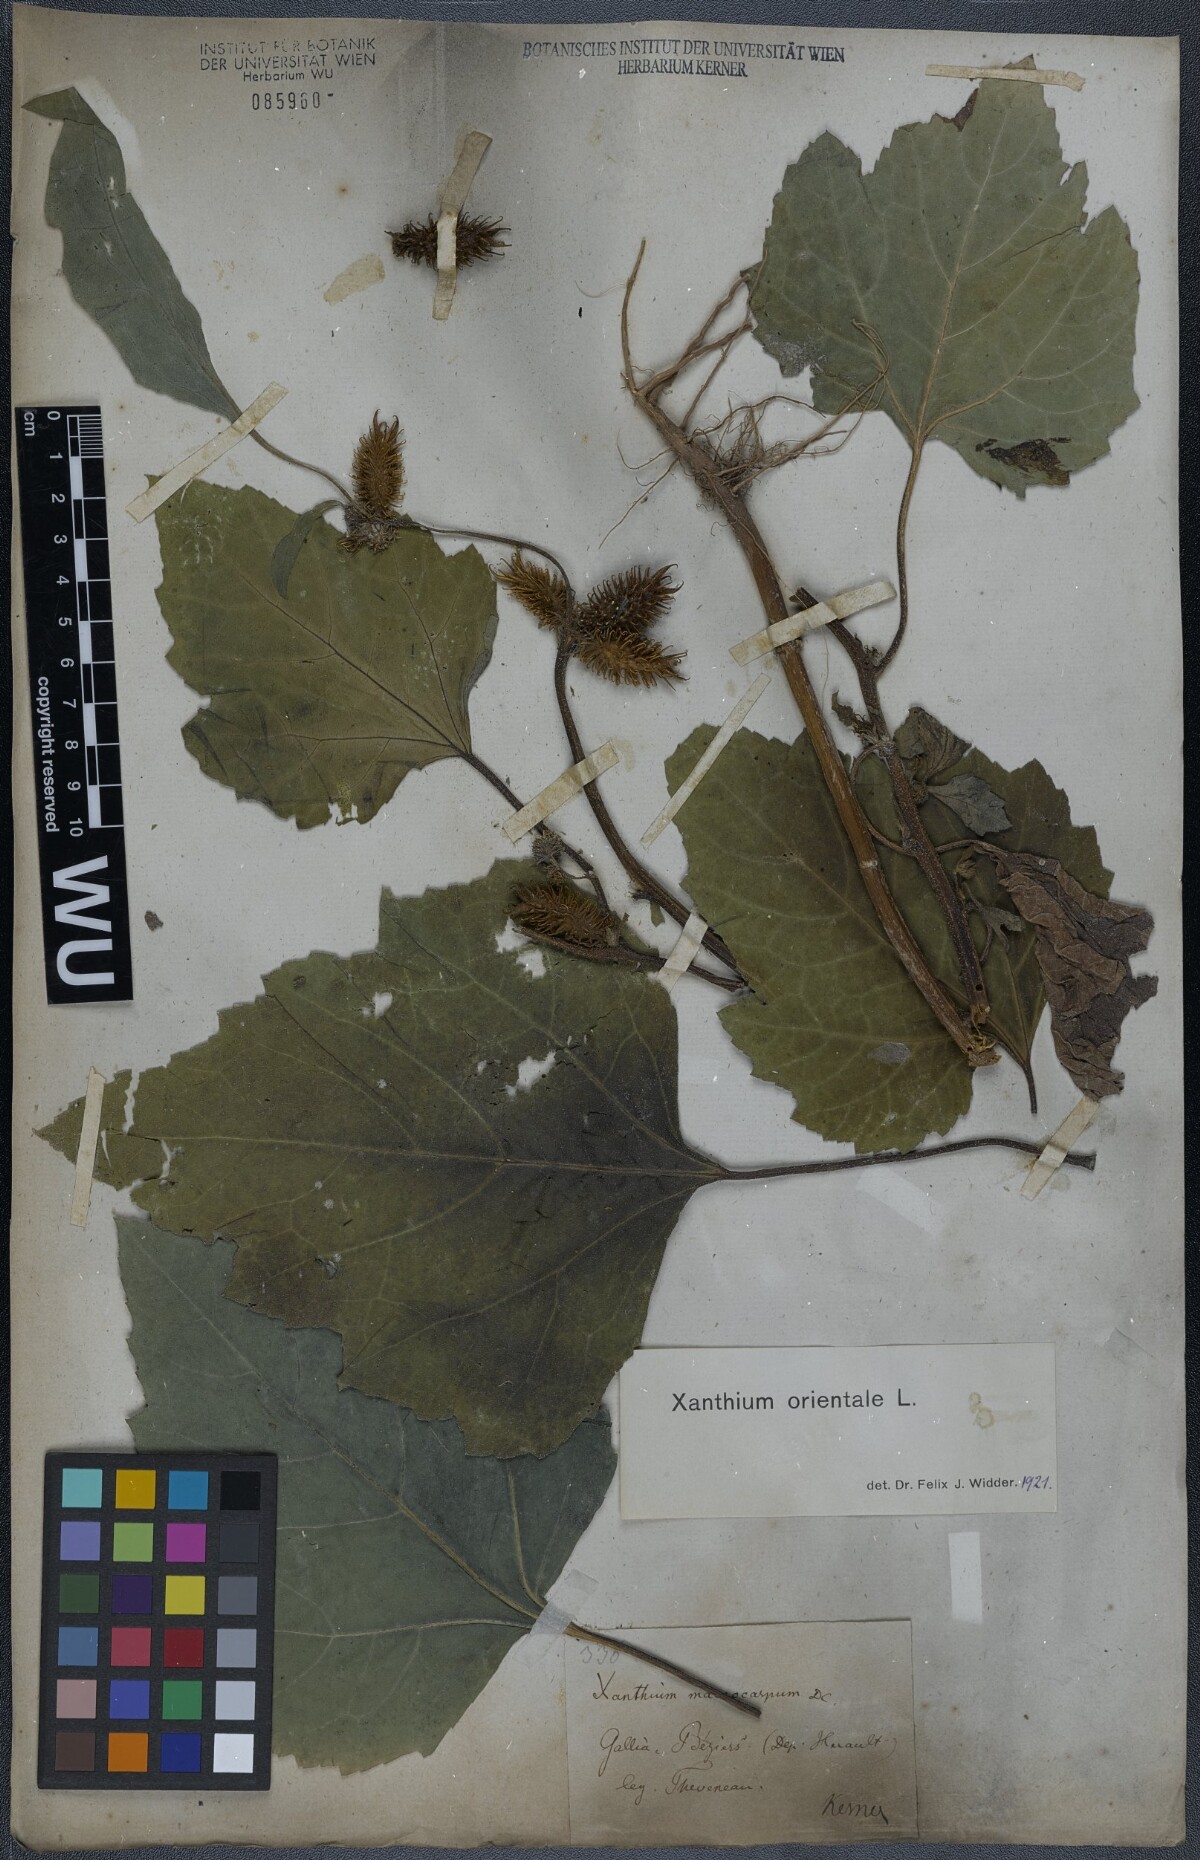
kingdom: Plantae
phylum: Tracheophyta
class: Magnoliopsida
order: Asterales
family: Asteraceae
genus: Xanthium
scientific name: Xanthium orientale
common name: Californian burr
